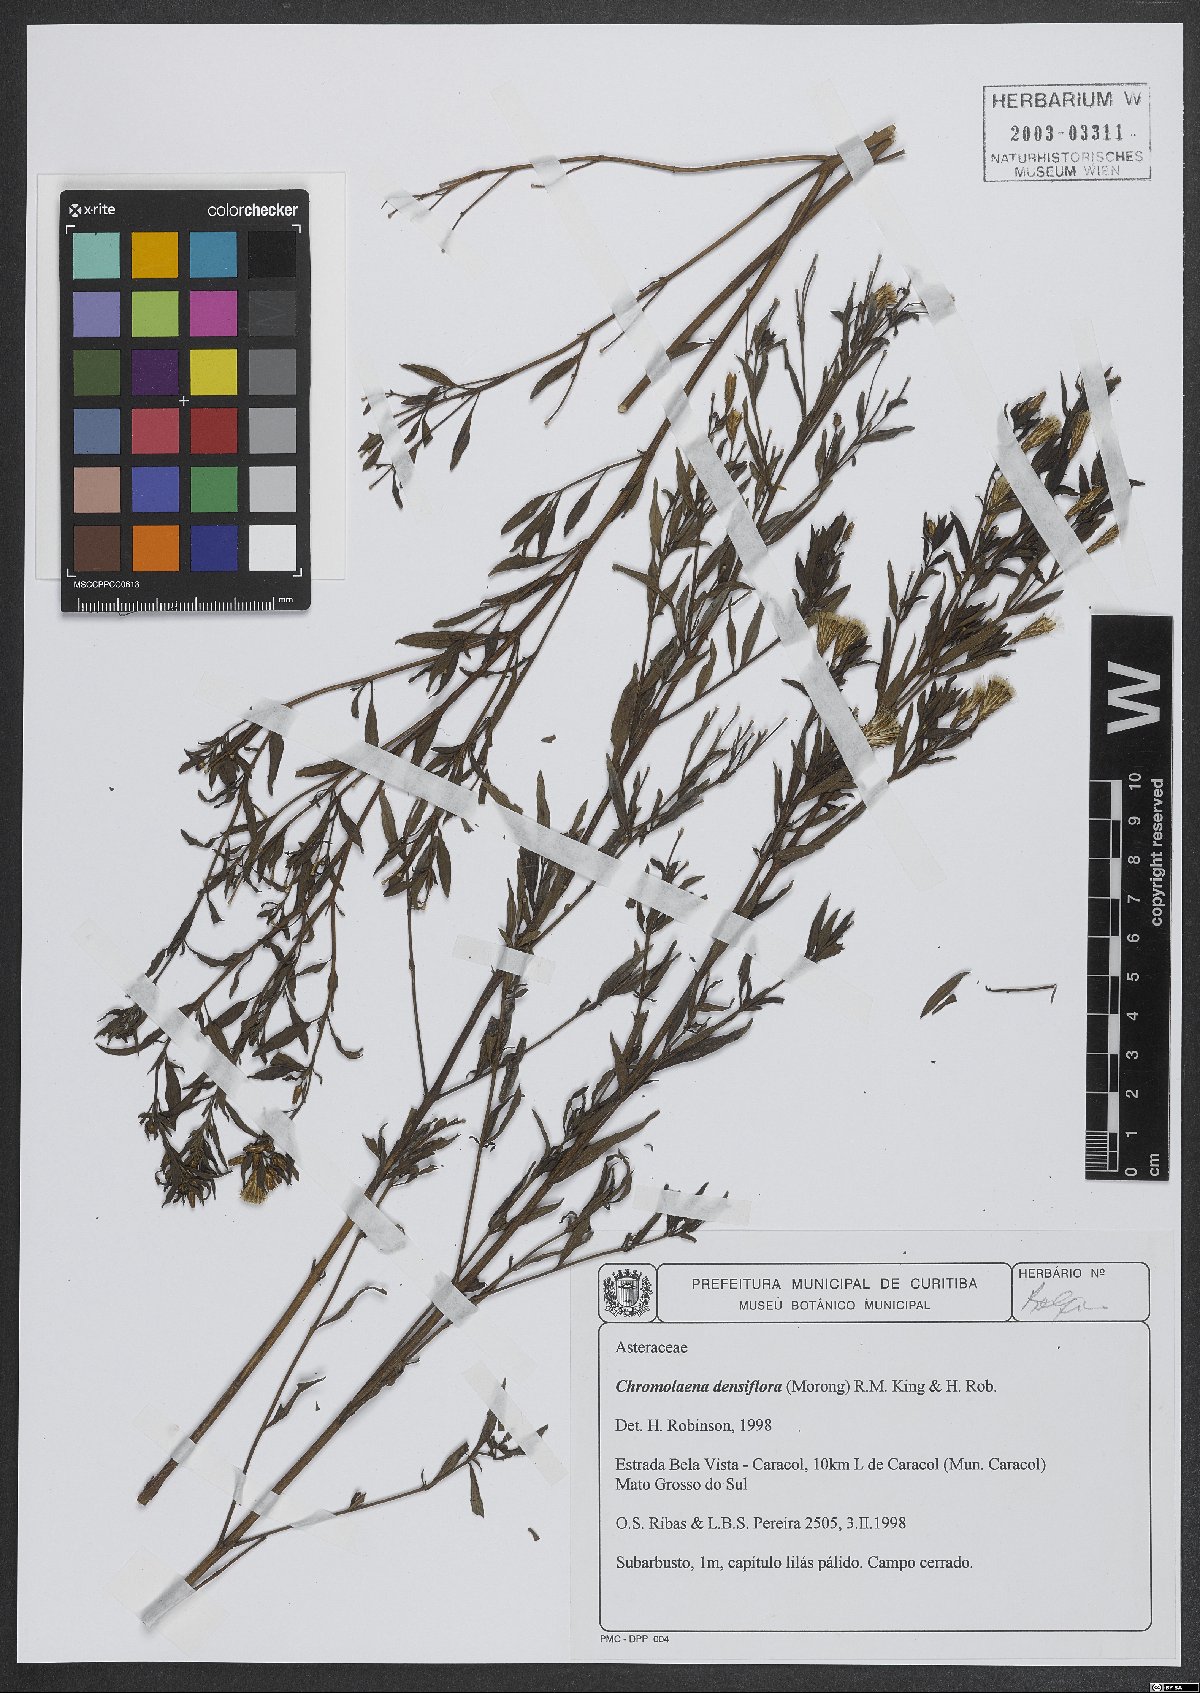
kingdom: Plantae
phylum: Tracheophyta
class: Magnoliopsida
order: Asterales
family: Asteraceae
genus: Chromolaena
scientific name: Chromolaena orbignyana
